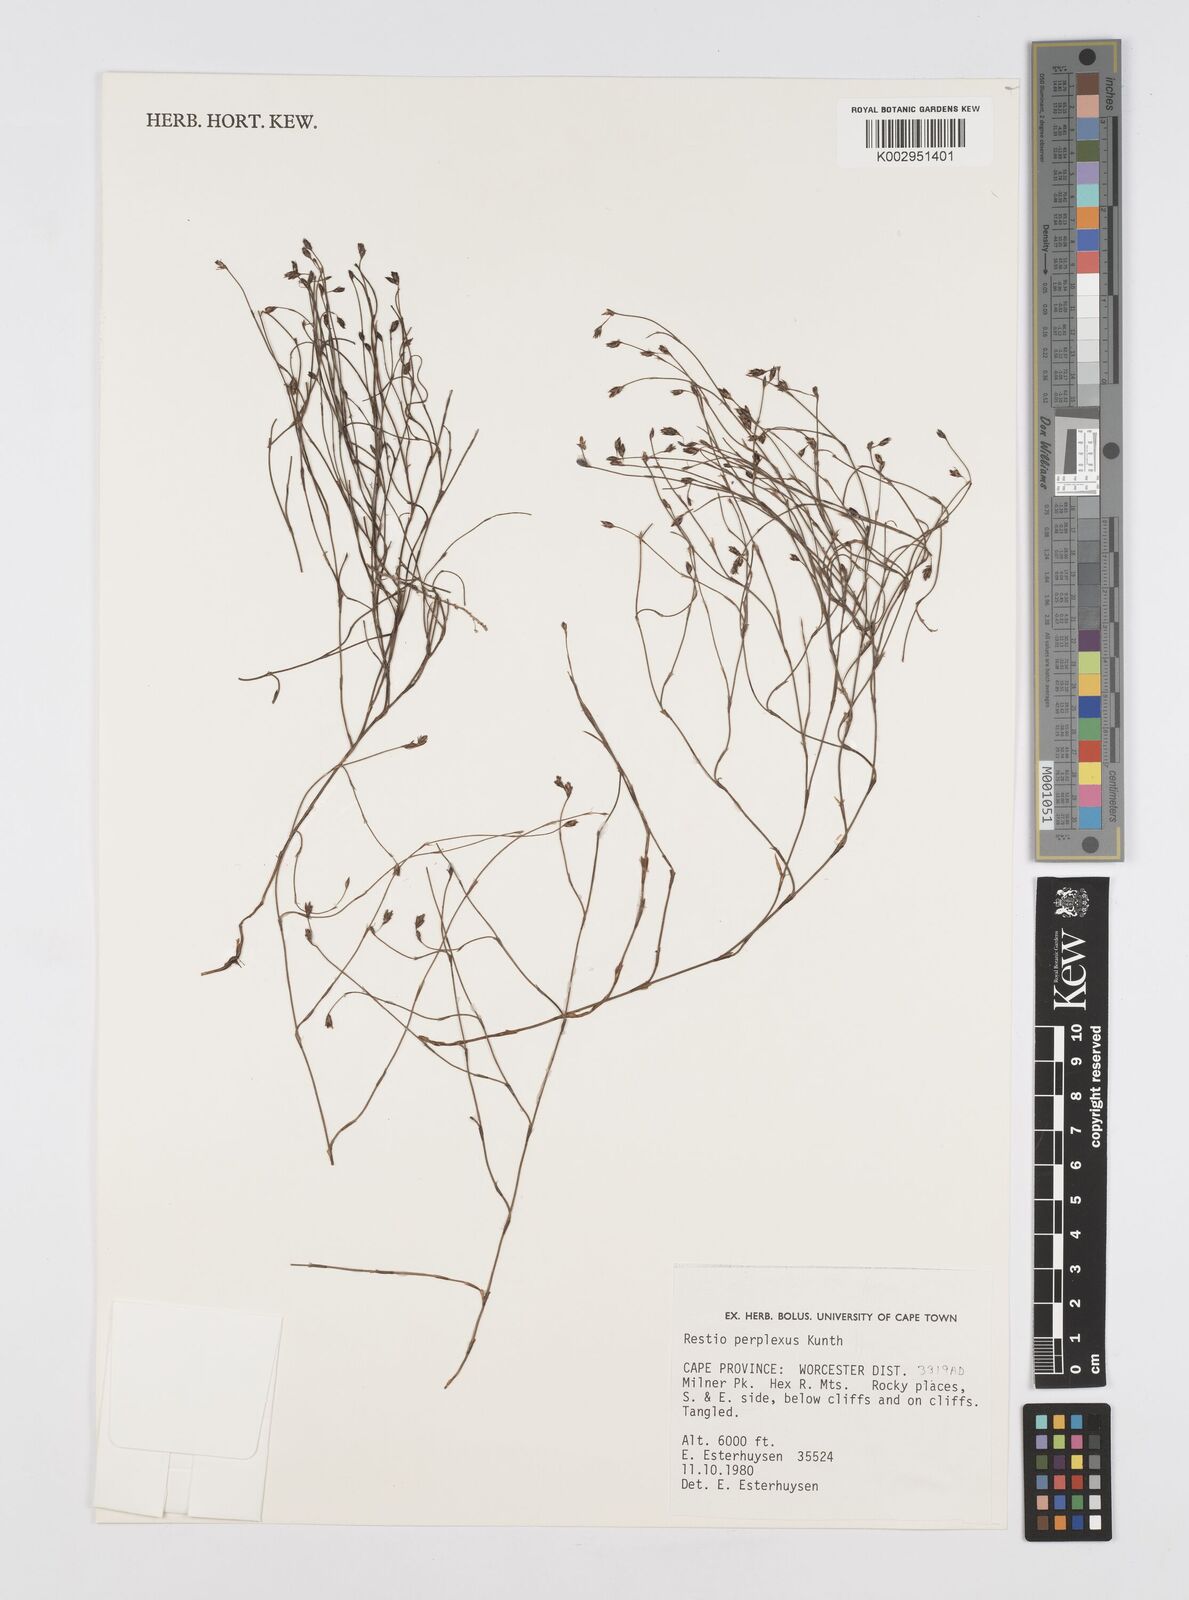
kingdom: Plantae
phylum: Tracheophyta
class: Liliopsida
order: Poales
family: Restionaceae
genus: Restio
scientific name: Restio perplexus
